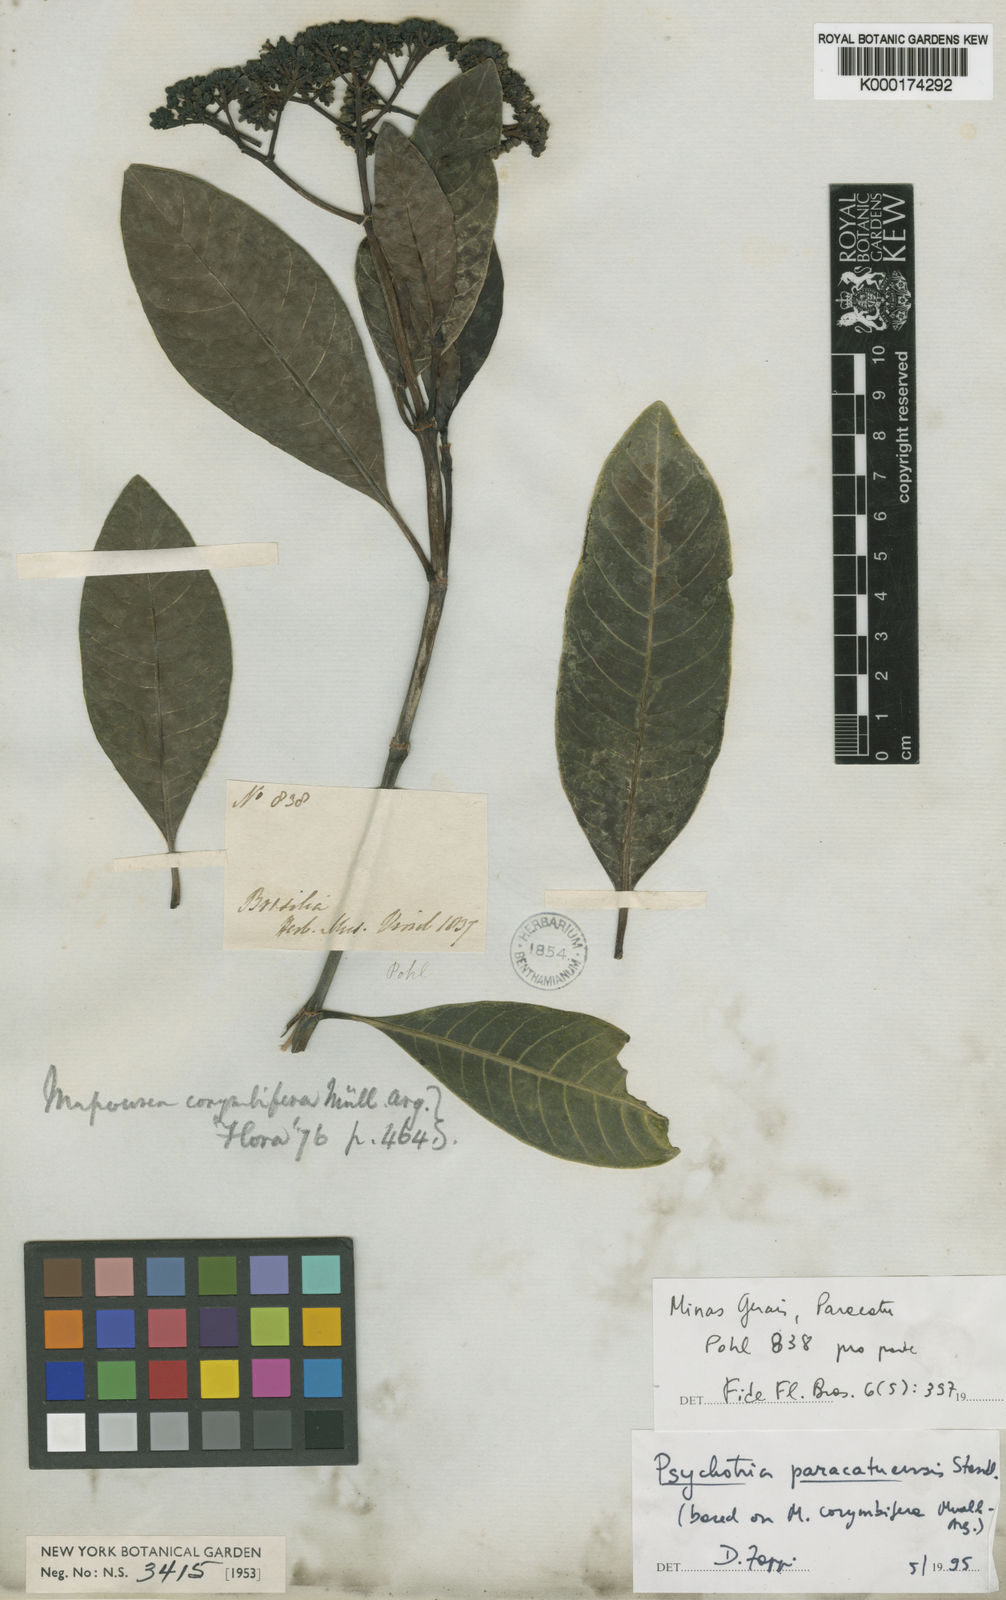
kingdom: Plantae
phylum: Tracheophyta
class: Magnoliopsida
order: Gentianales
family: Rubiaceae
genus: Psychotria
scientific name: Psychotria anceps
